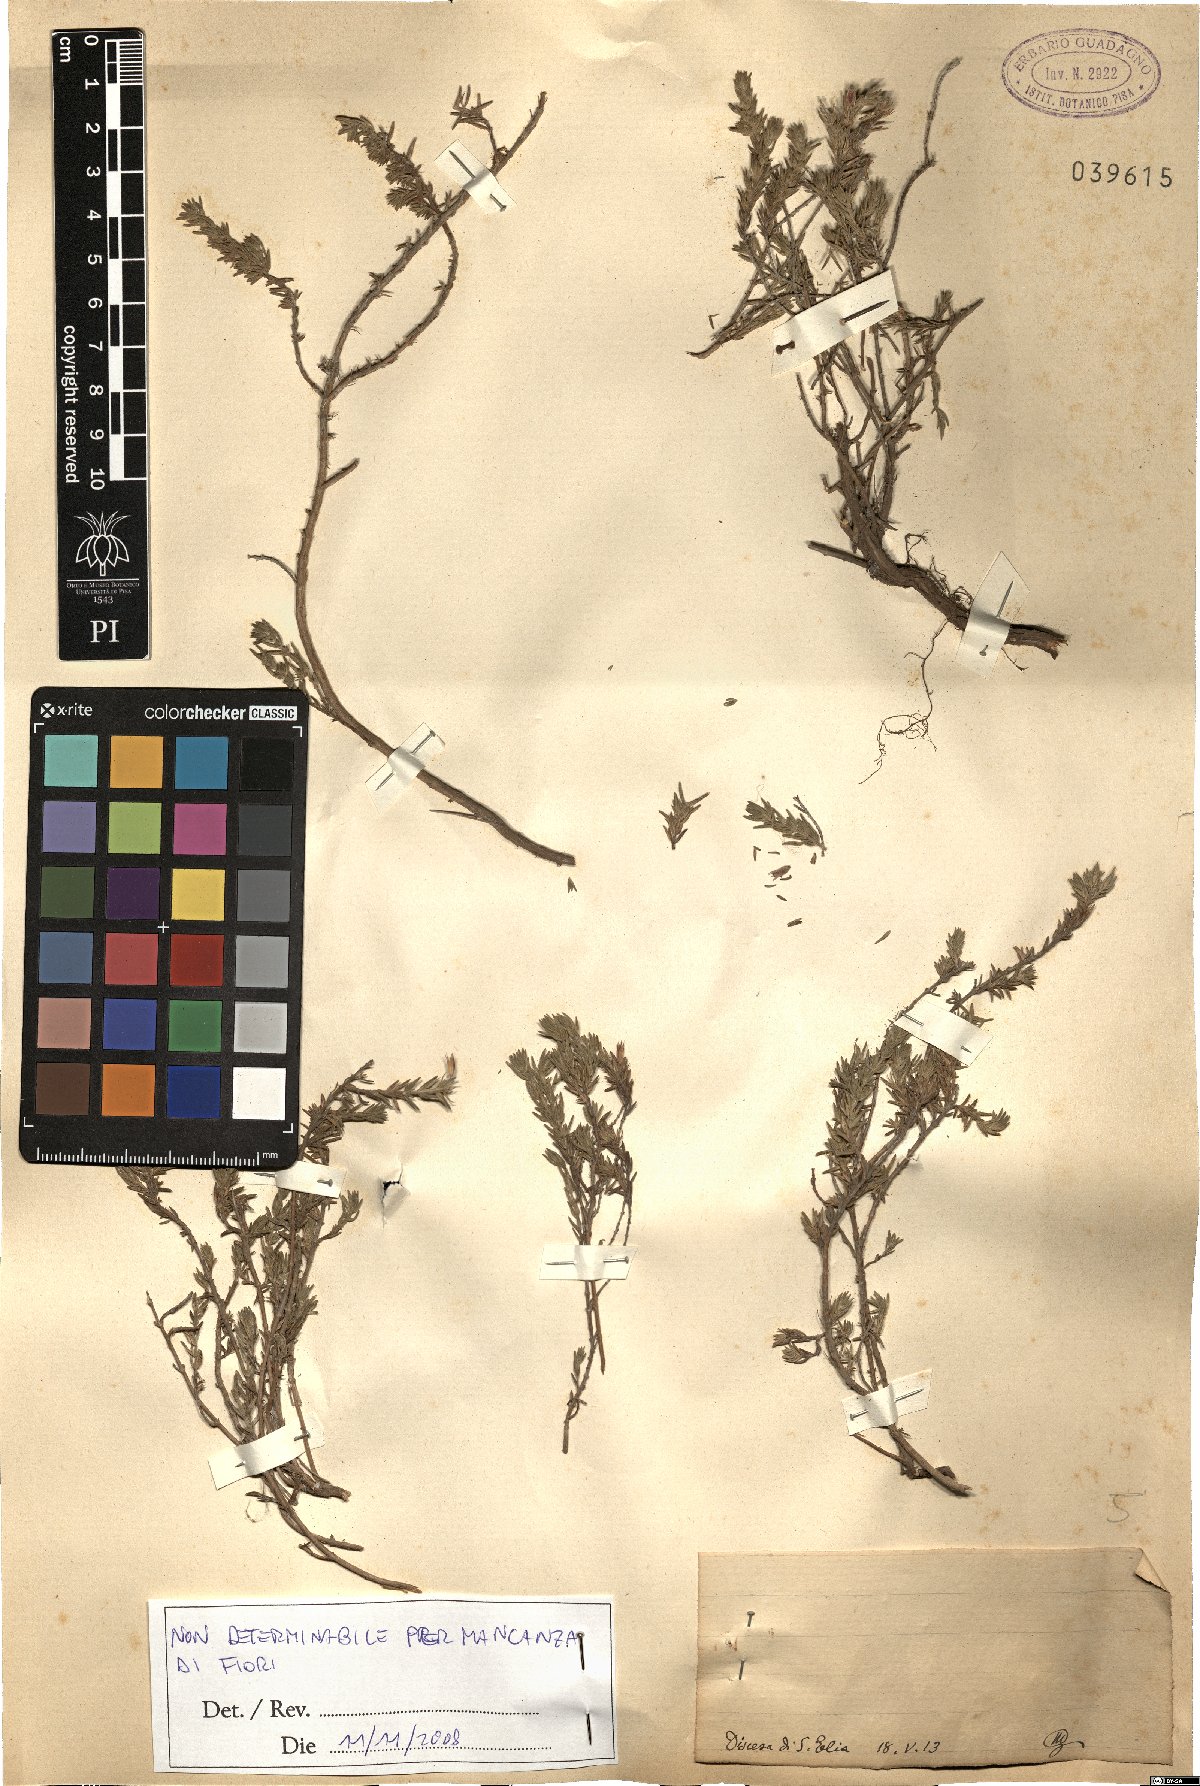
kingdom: Plantae
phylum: Tracheophyta
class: Magnoliopsida
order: Lamiales
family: Lamiaceae
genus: Micromeria
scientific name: Micromeria
